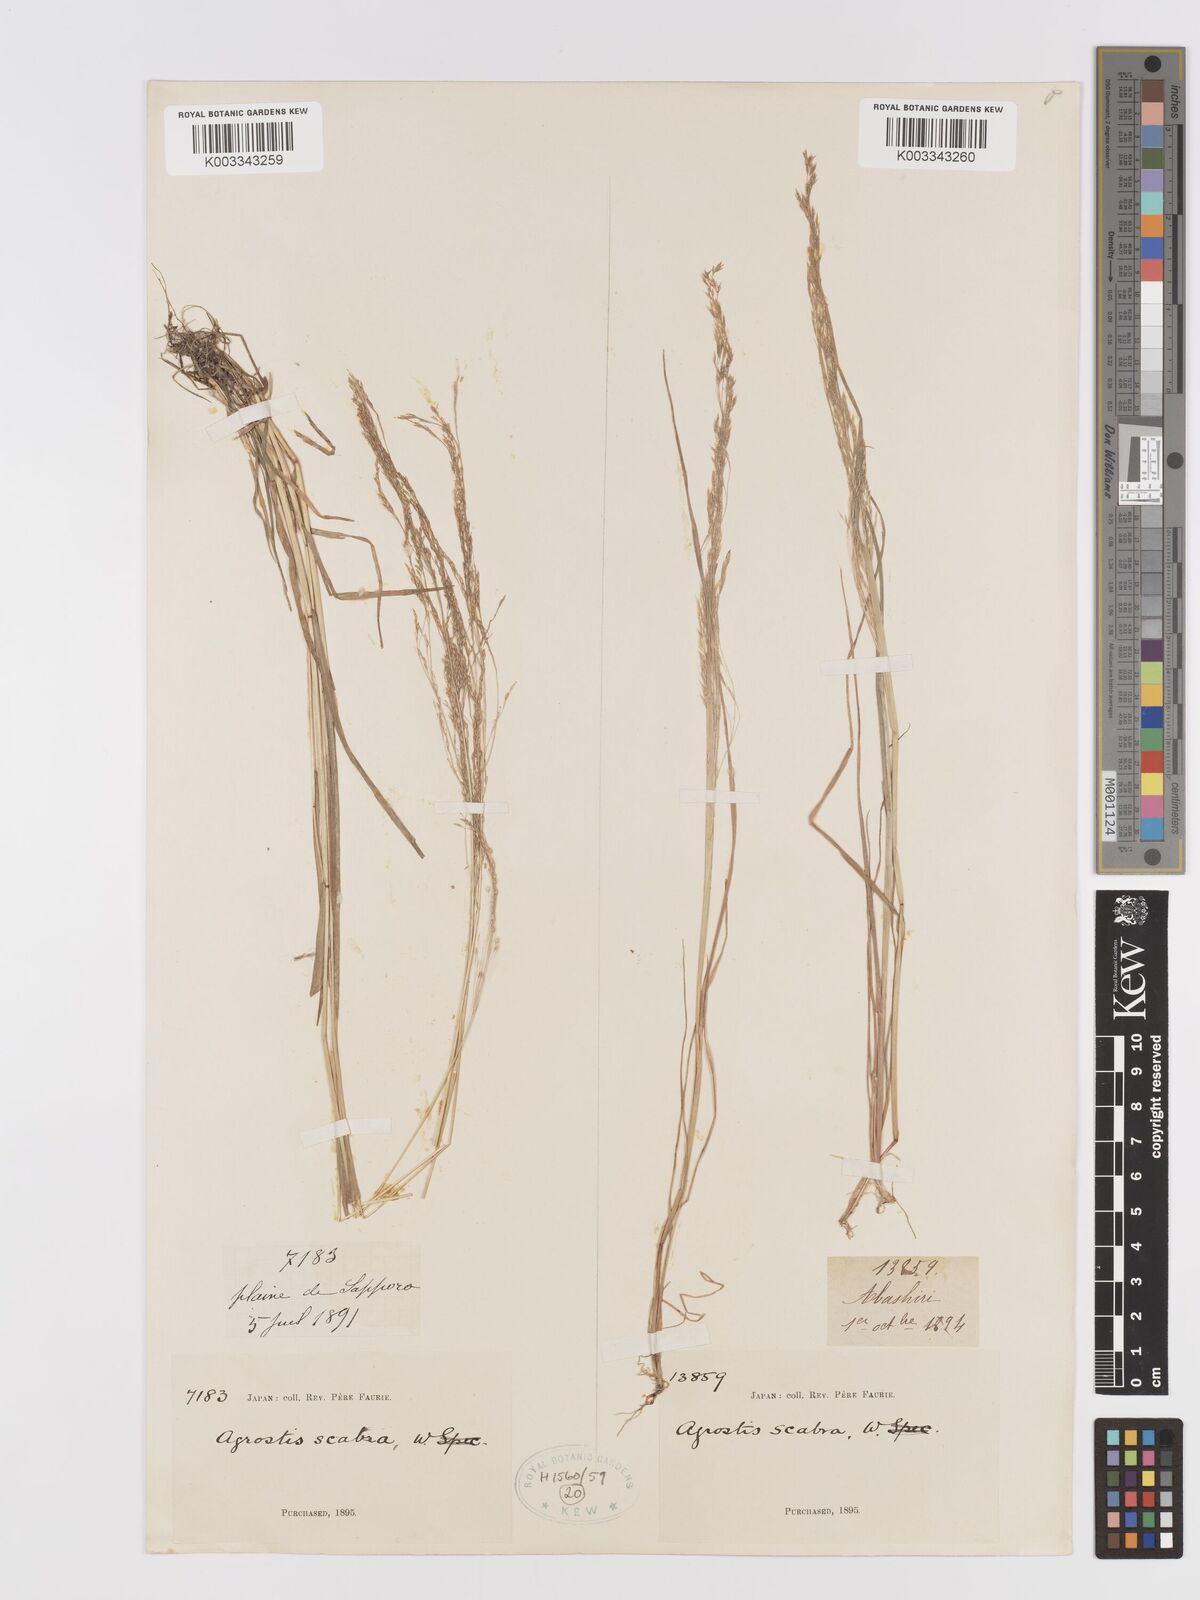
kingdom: Plantae
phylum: Tracheophyta
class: Liliopsida
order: Poales
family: Poaceae
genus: Agrostis
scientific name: Agrostis scabra
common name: Rough bent
